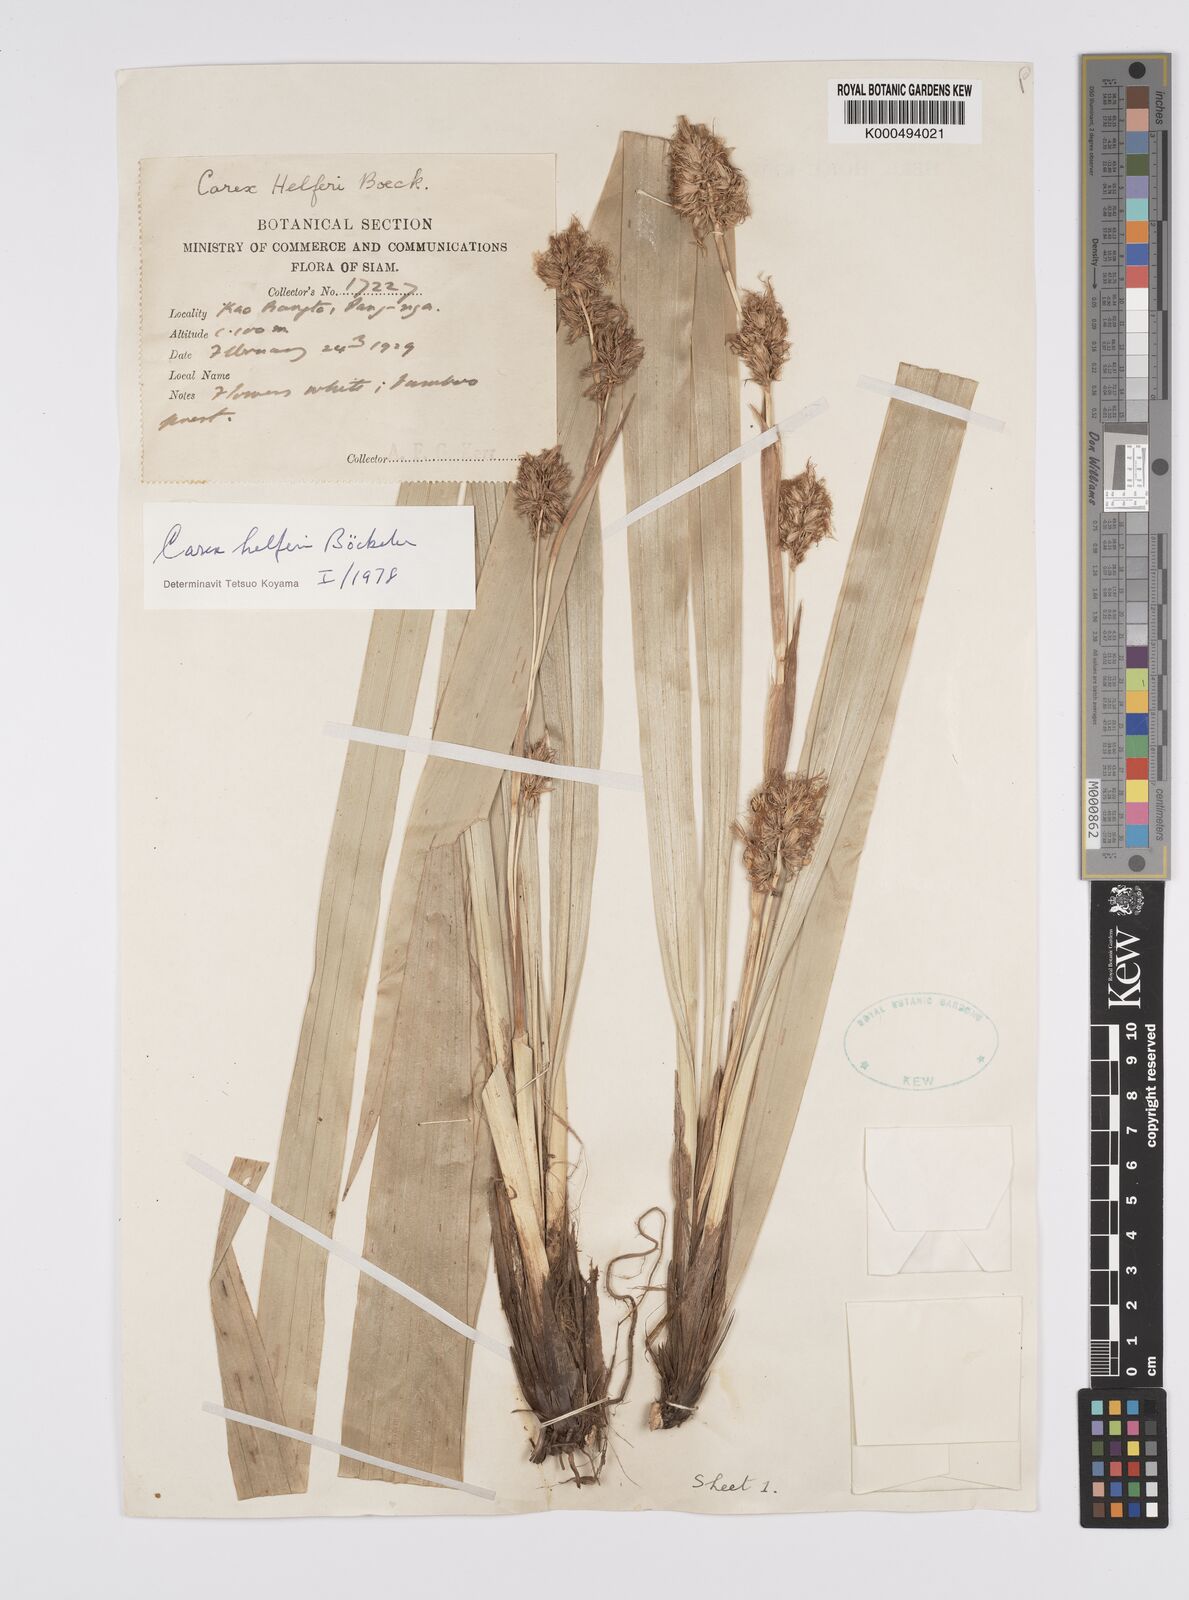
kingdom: Plantae
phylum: Tracheophyta
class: Liliopsida
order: Poales
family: Cyperaceae
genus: Carex
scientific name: Carex helferi
